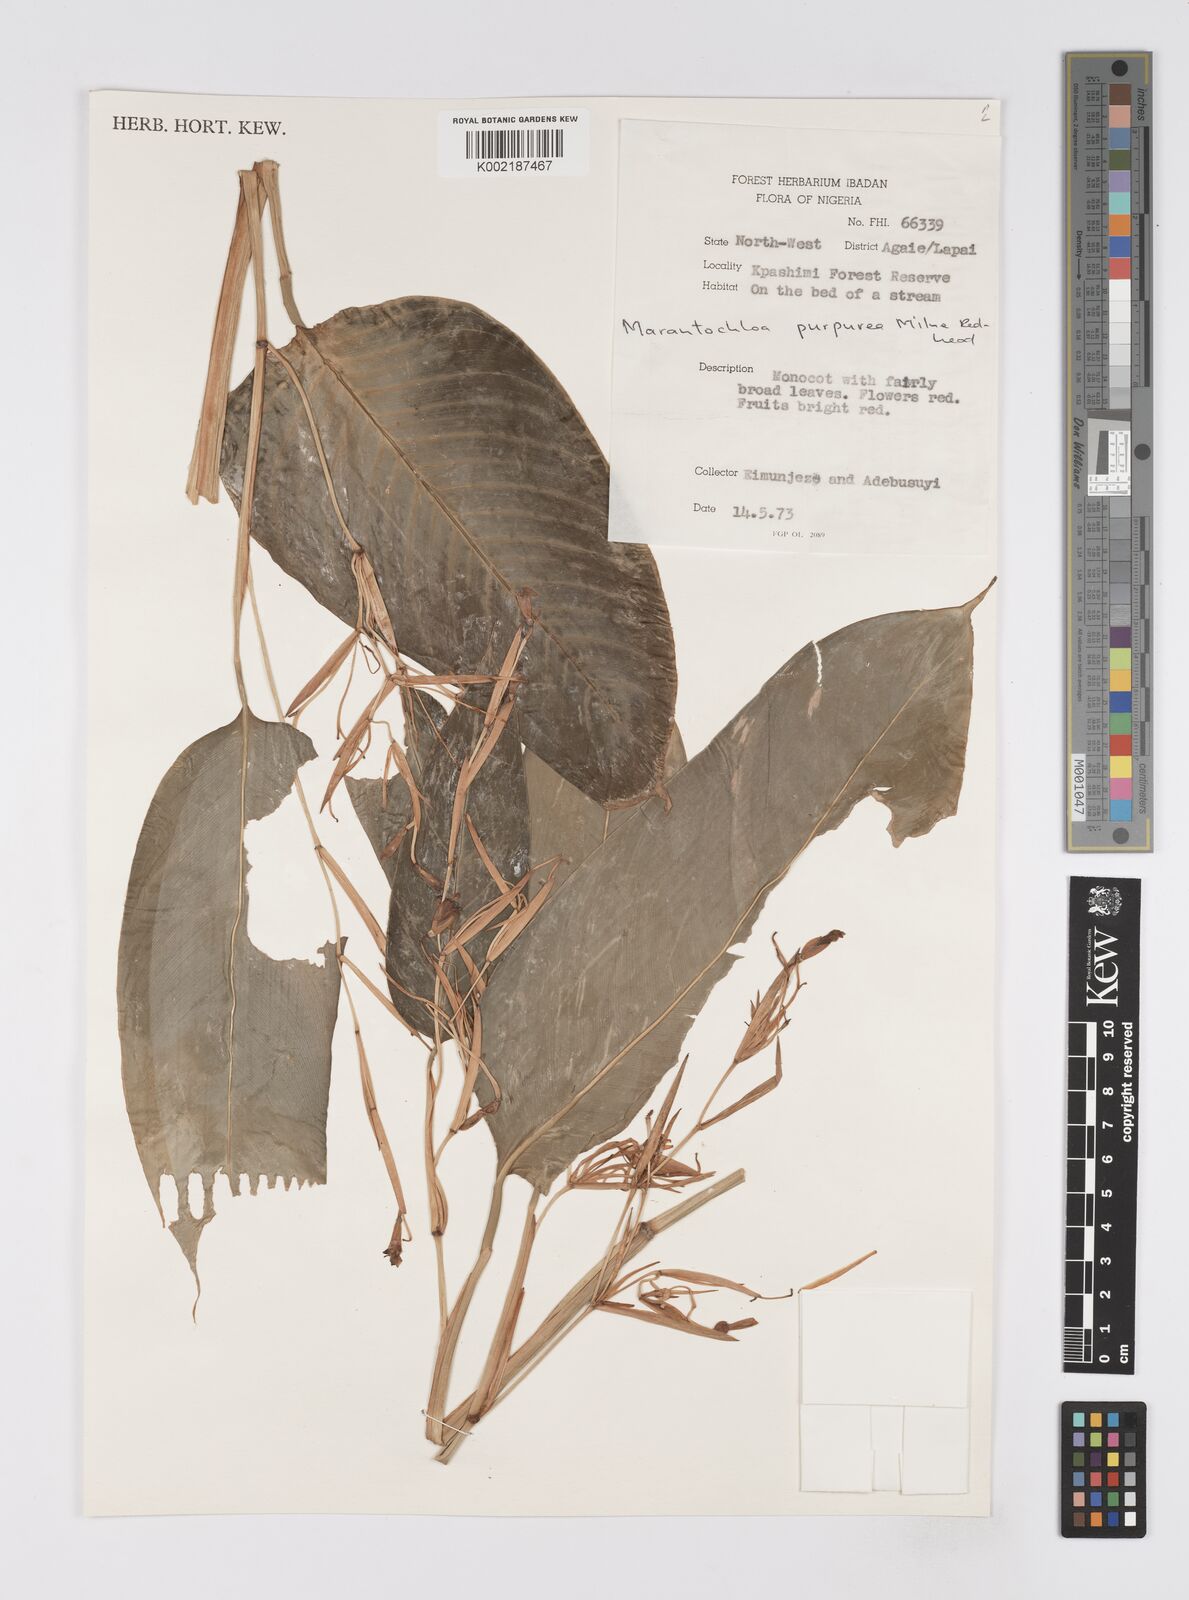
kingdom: Plantae
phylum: Tracheophyta
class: Liliopsida
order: Zingiberales
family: Marantaceae
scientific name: Marantaceae
